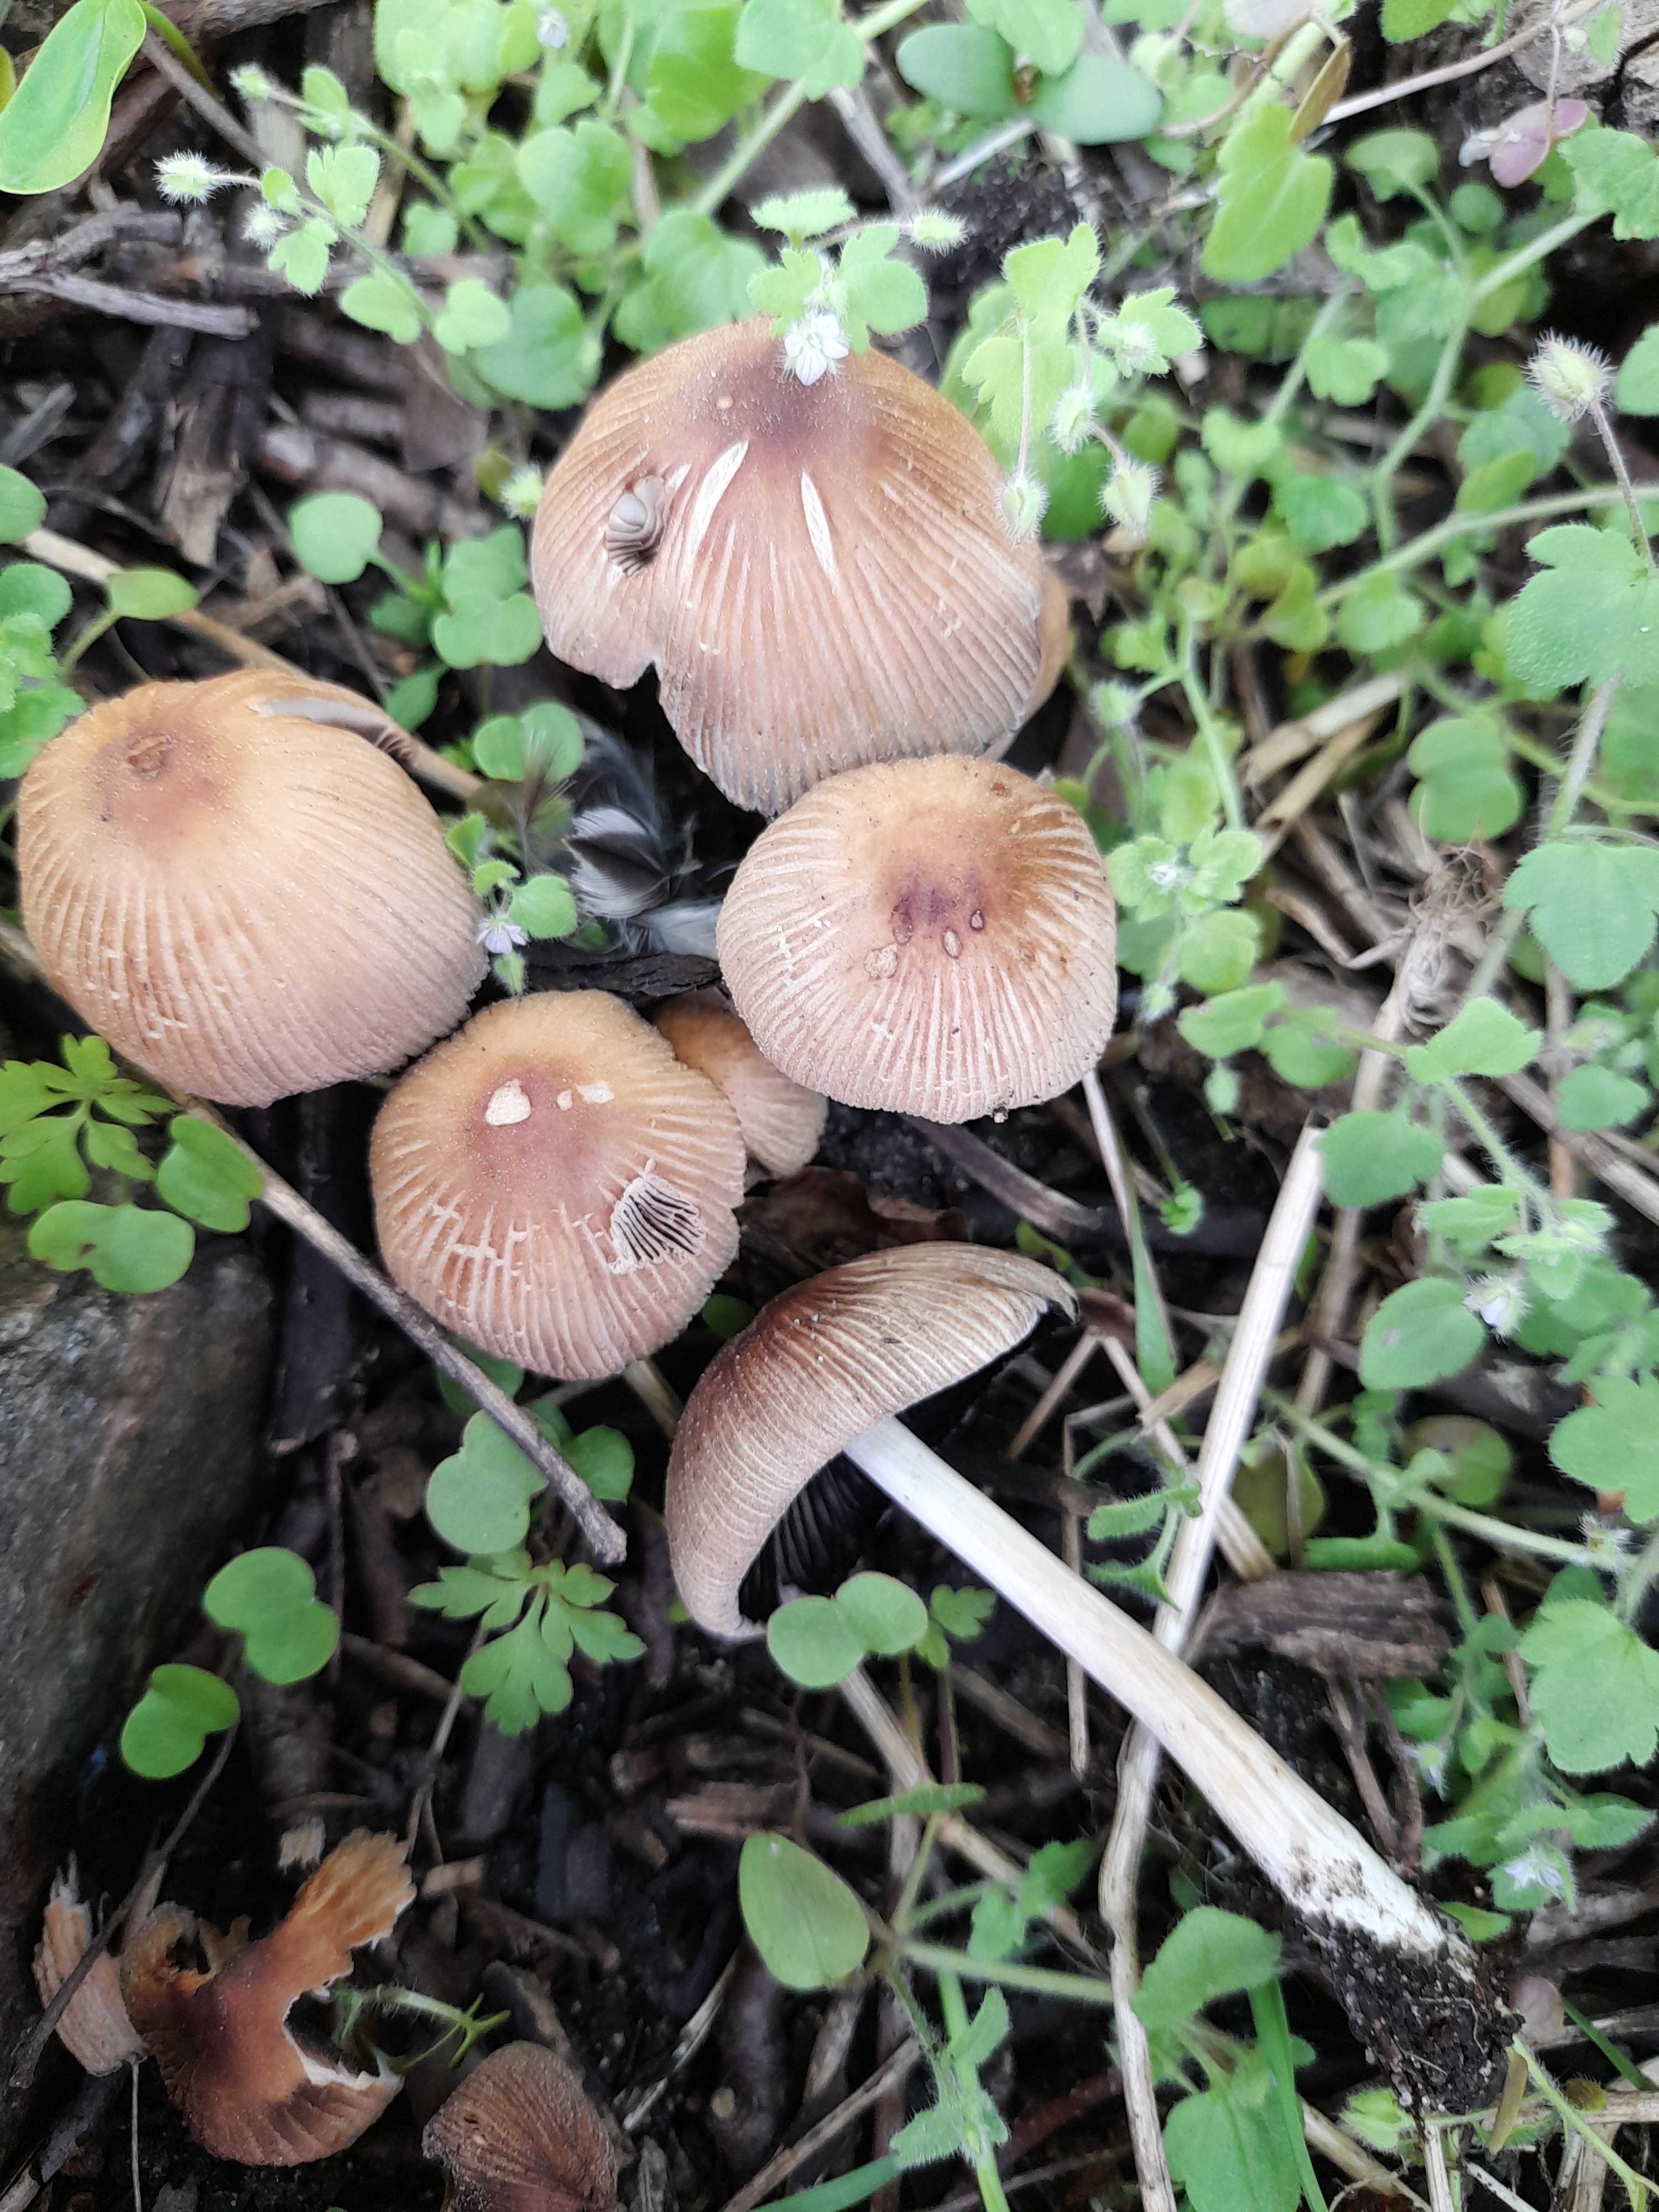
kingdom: Fungi
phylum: Basidiomycota
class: Agaricomycetes
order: Agaricales
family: Psathyrellaceae
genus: Coprinellus
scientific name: Coprinellus micaceus
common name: glimmer-blækhat
